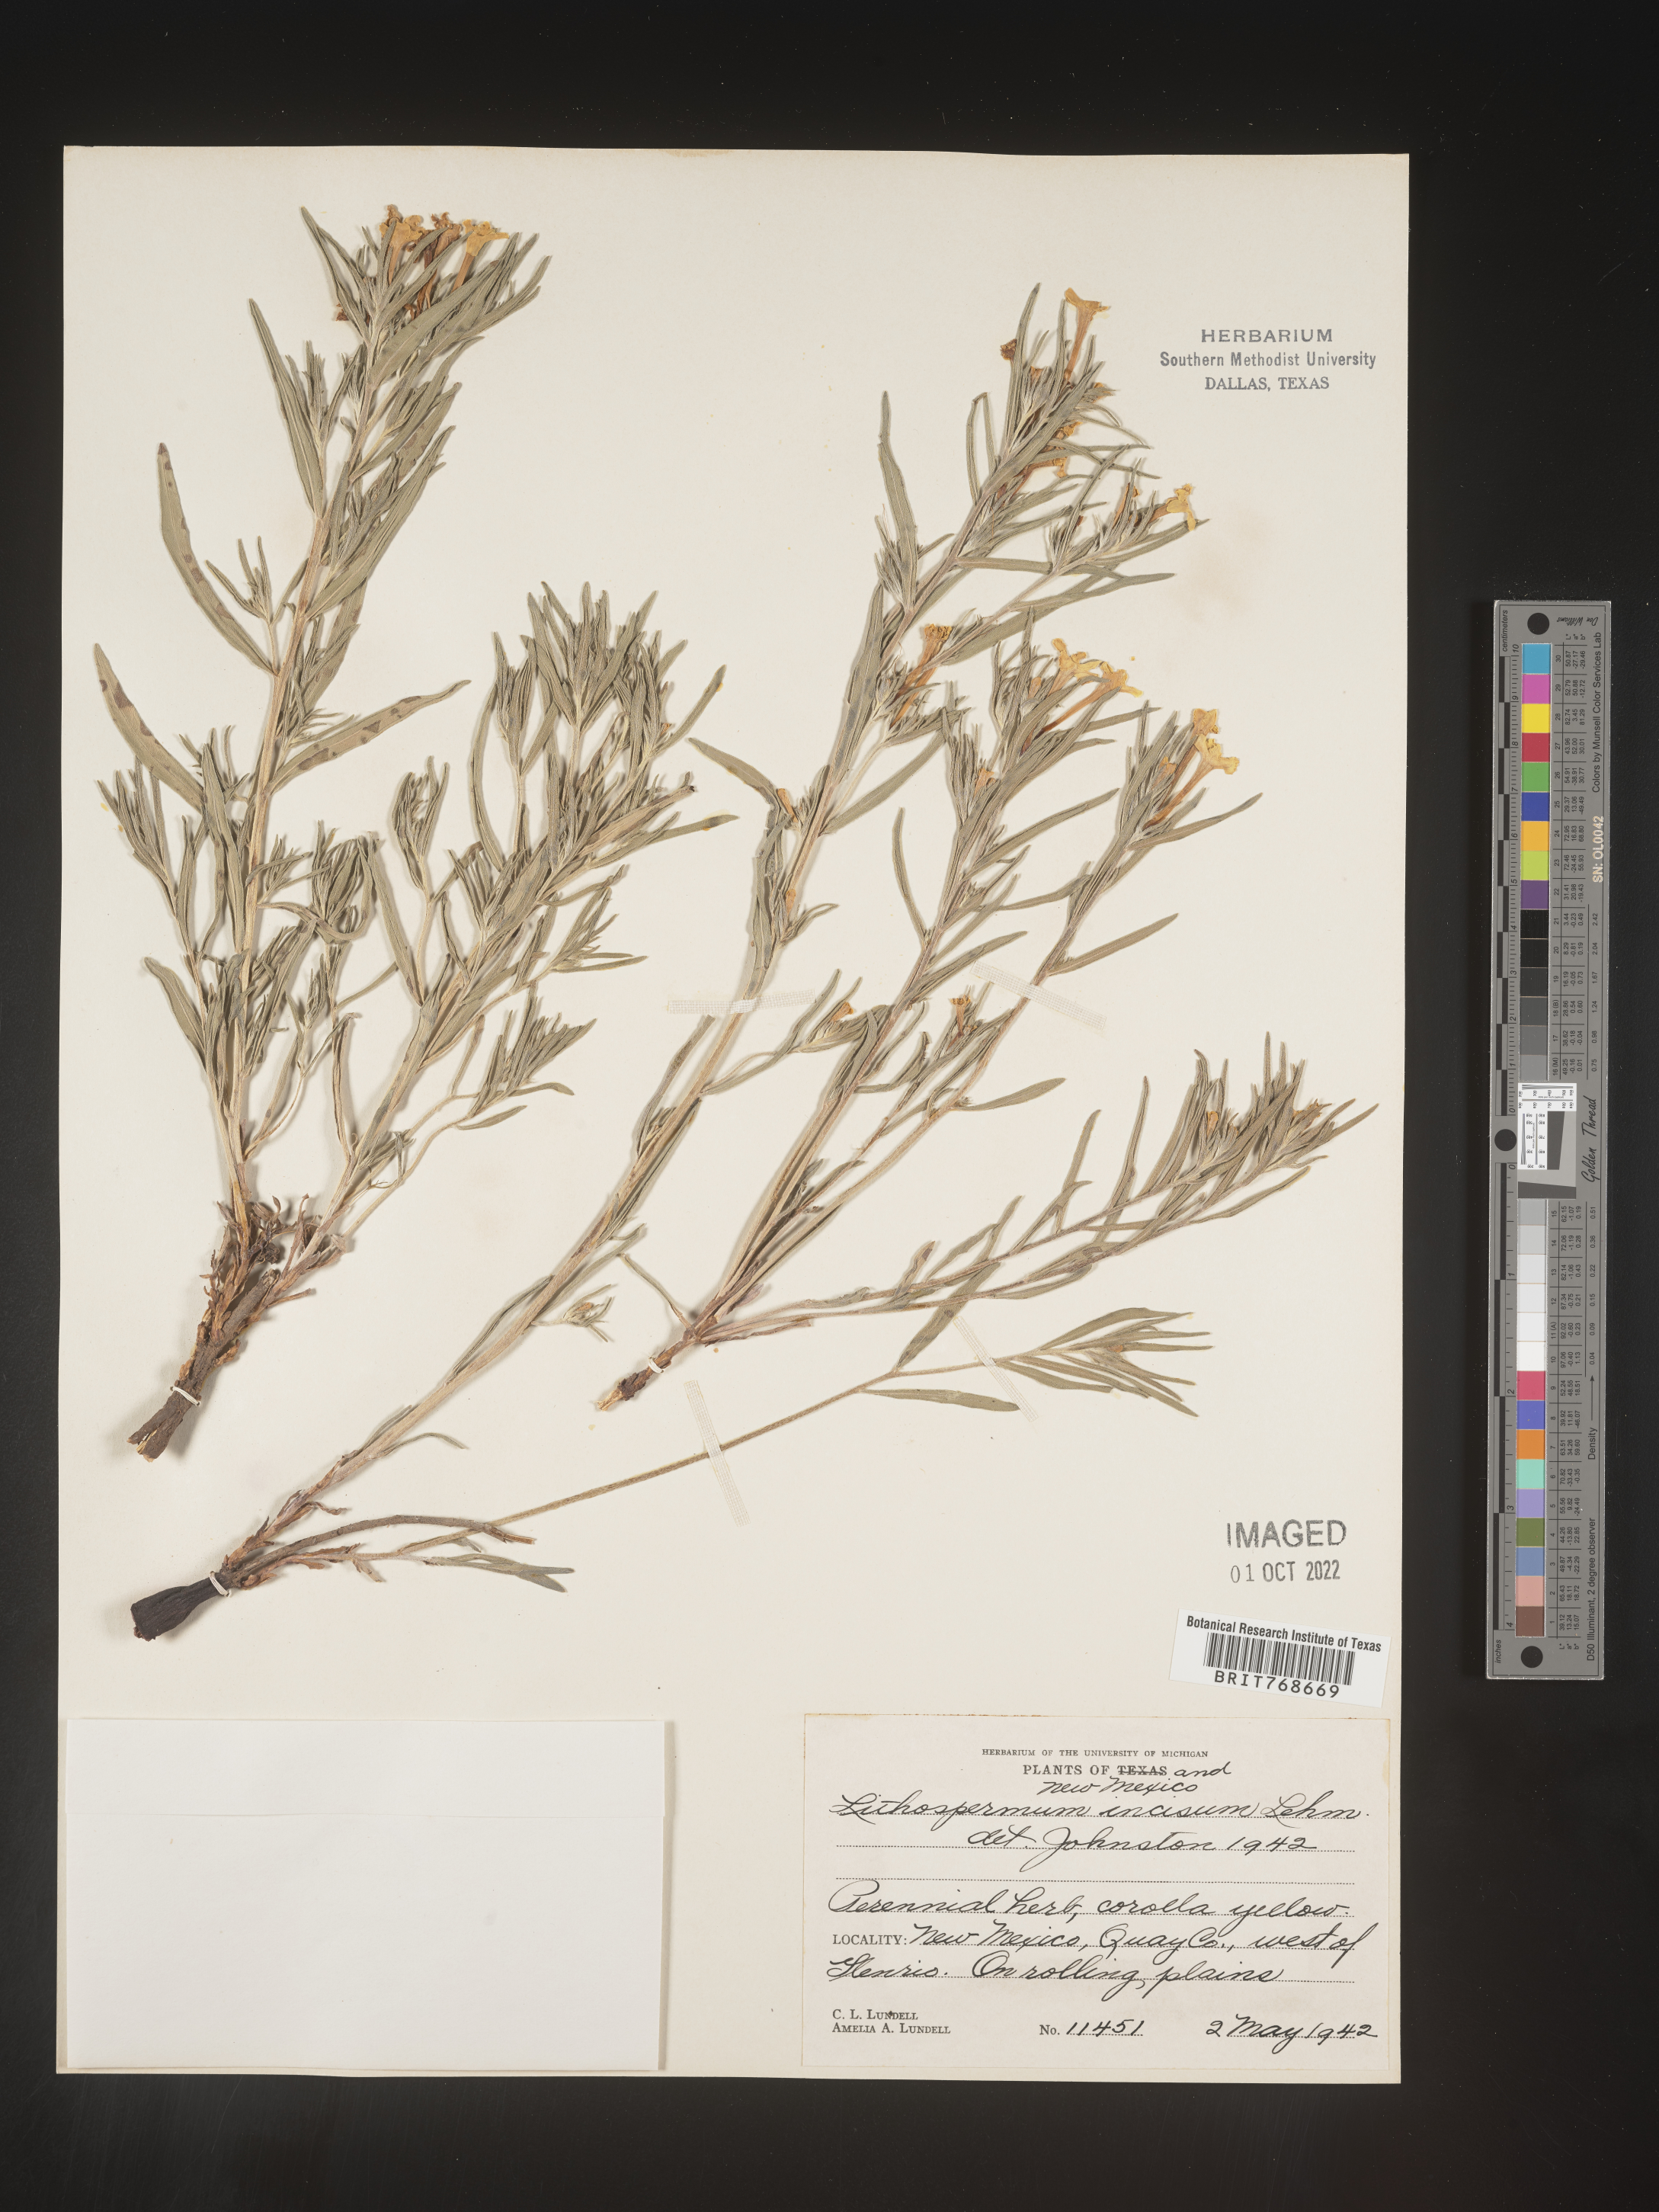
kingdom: Plantae
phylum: Tracheophyta
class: Magnoliopsida
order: Boraginales
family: Boraginaceae
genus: Lithospermum
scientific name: Lithospermum incisum
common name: Fringed gromwell
